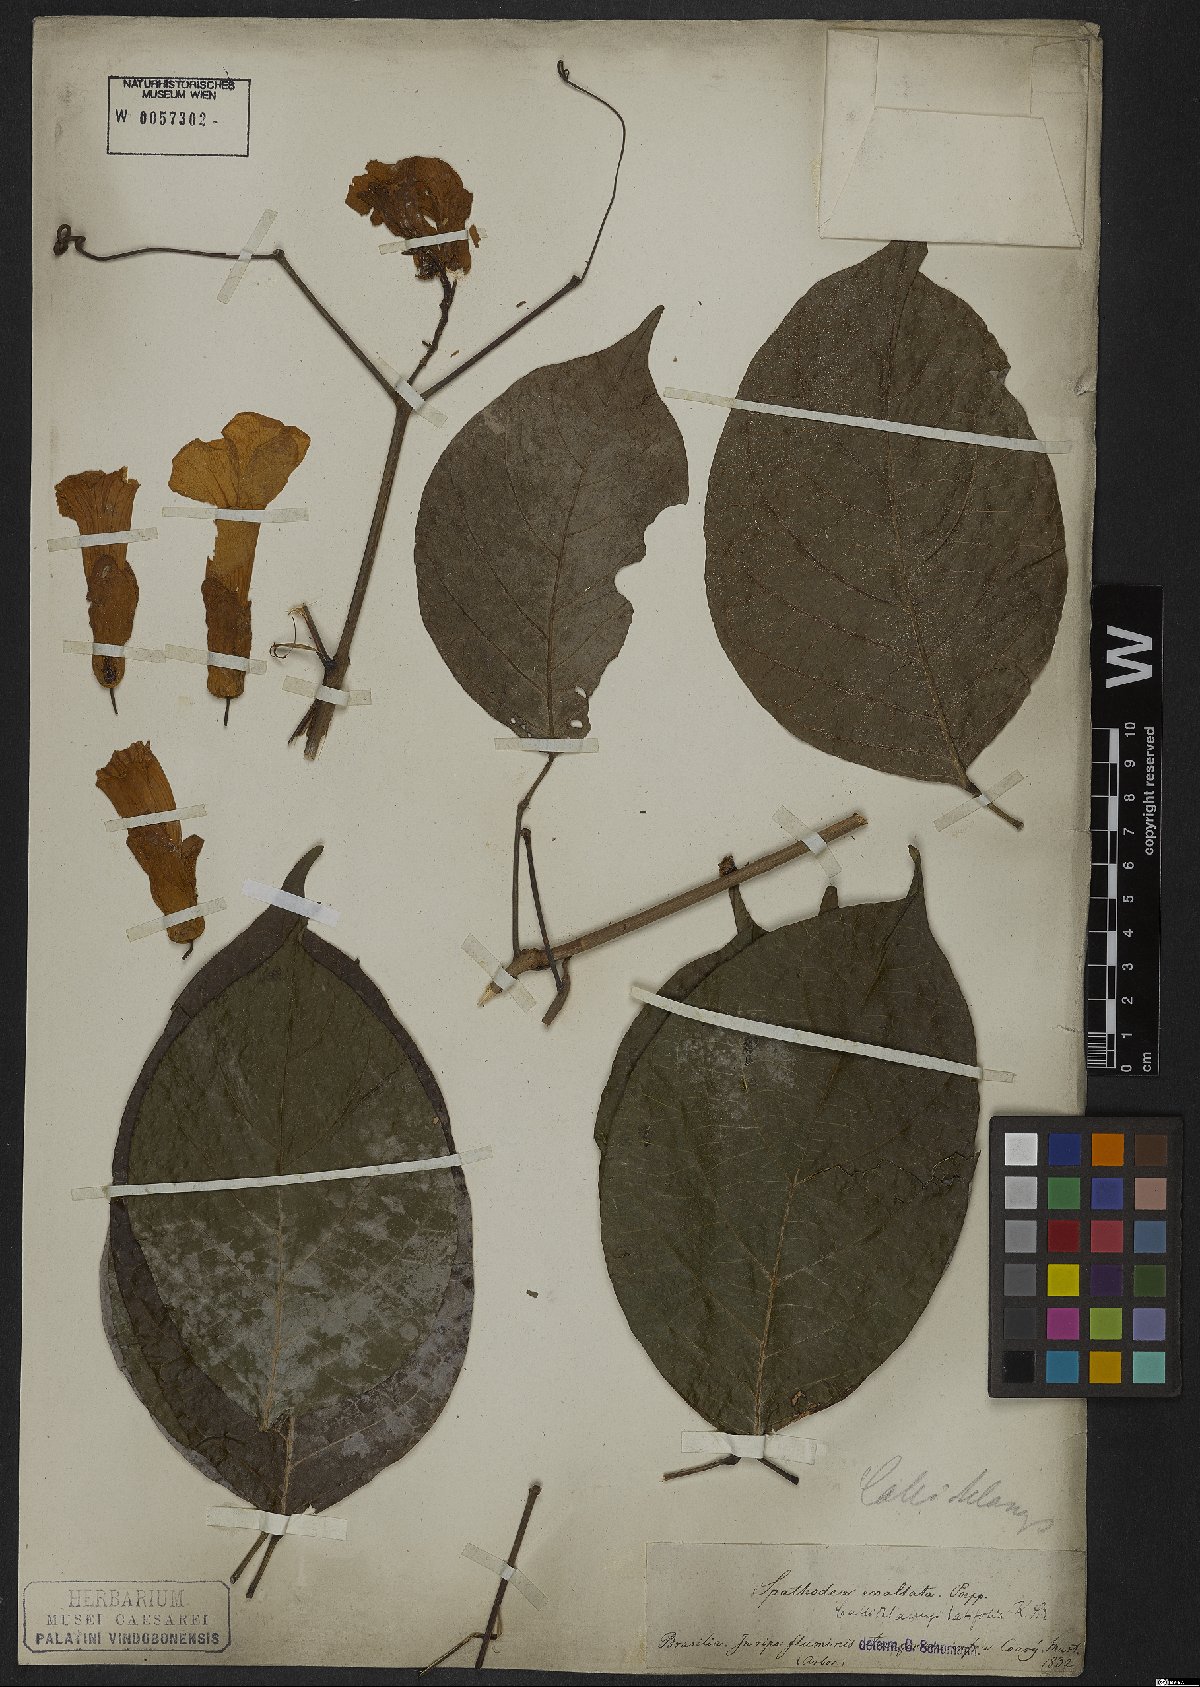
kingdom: Plantae
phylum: Tracheophyta
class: Magnoliopsida
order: Lamiales
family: Bignoniaceae
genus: Callichlamys
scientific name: Callichlamys latifolia
